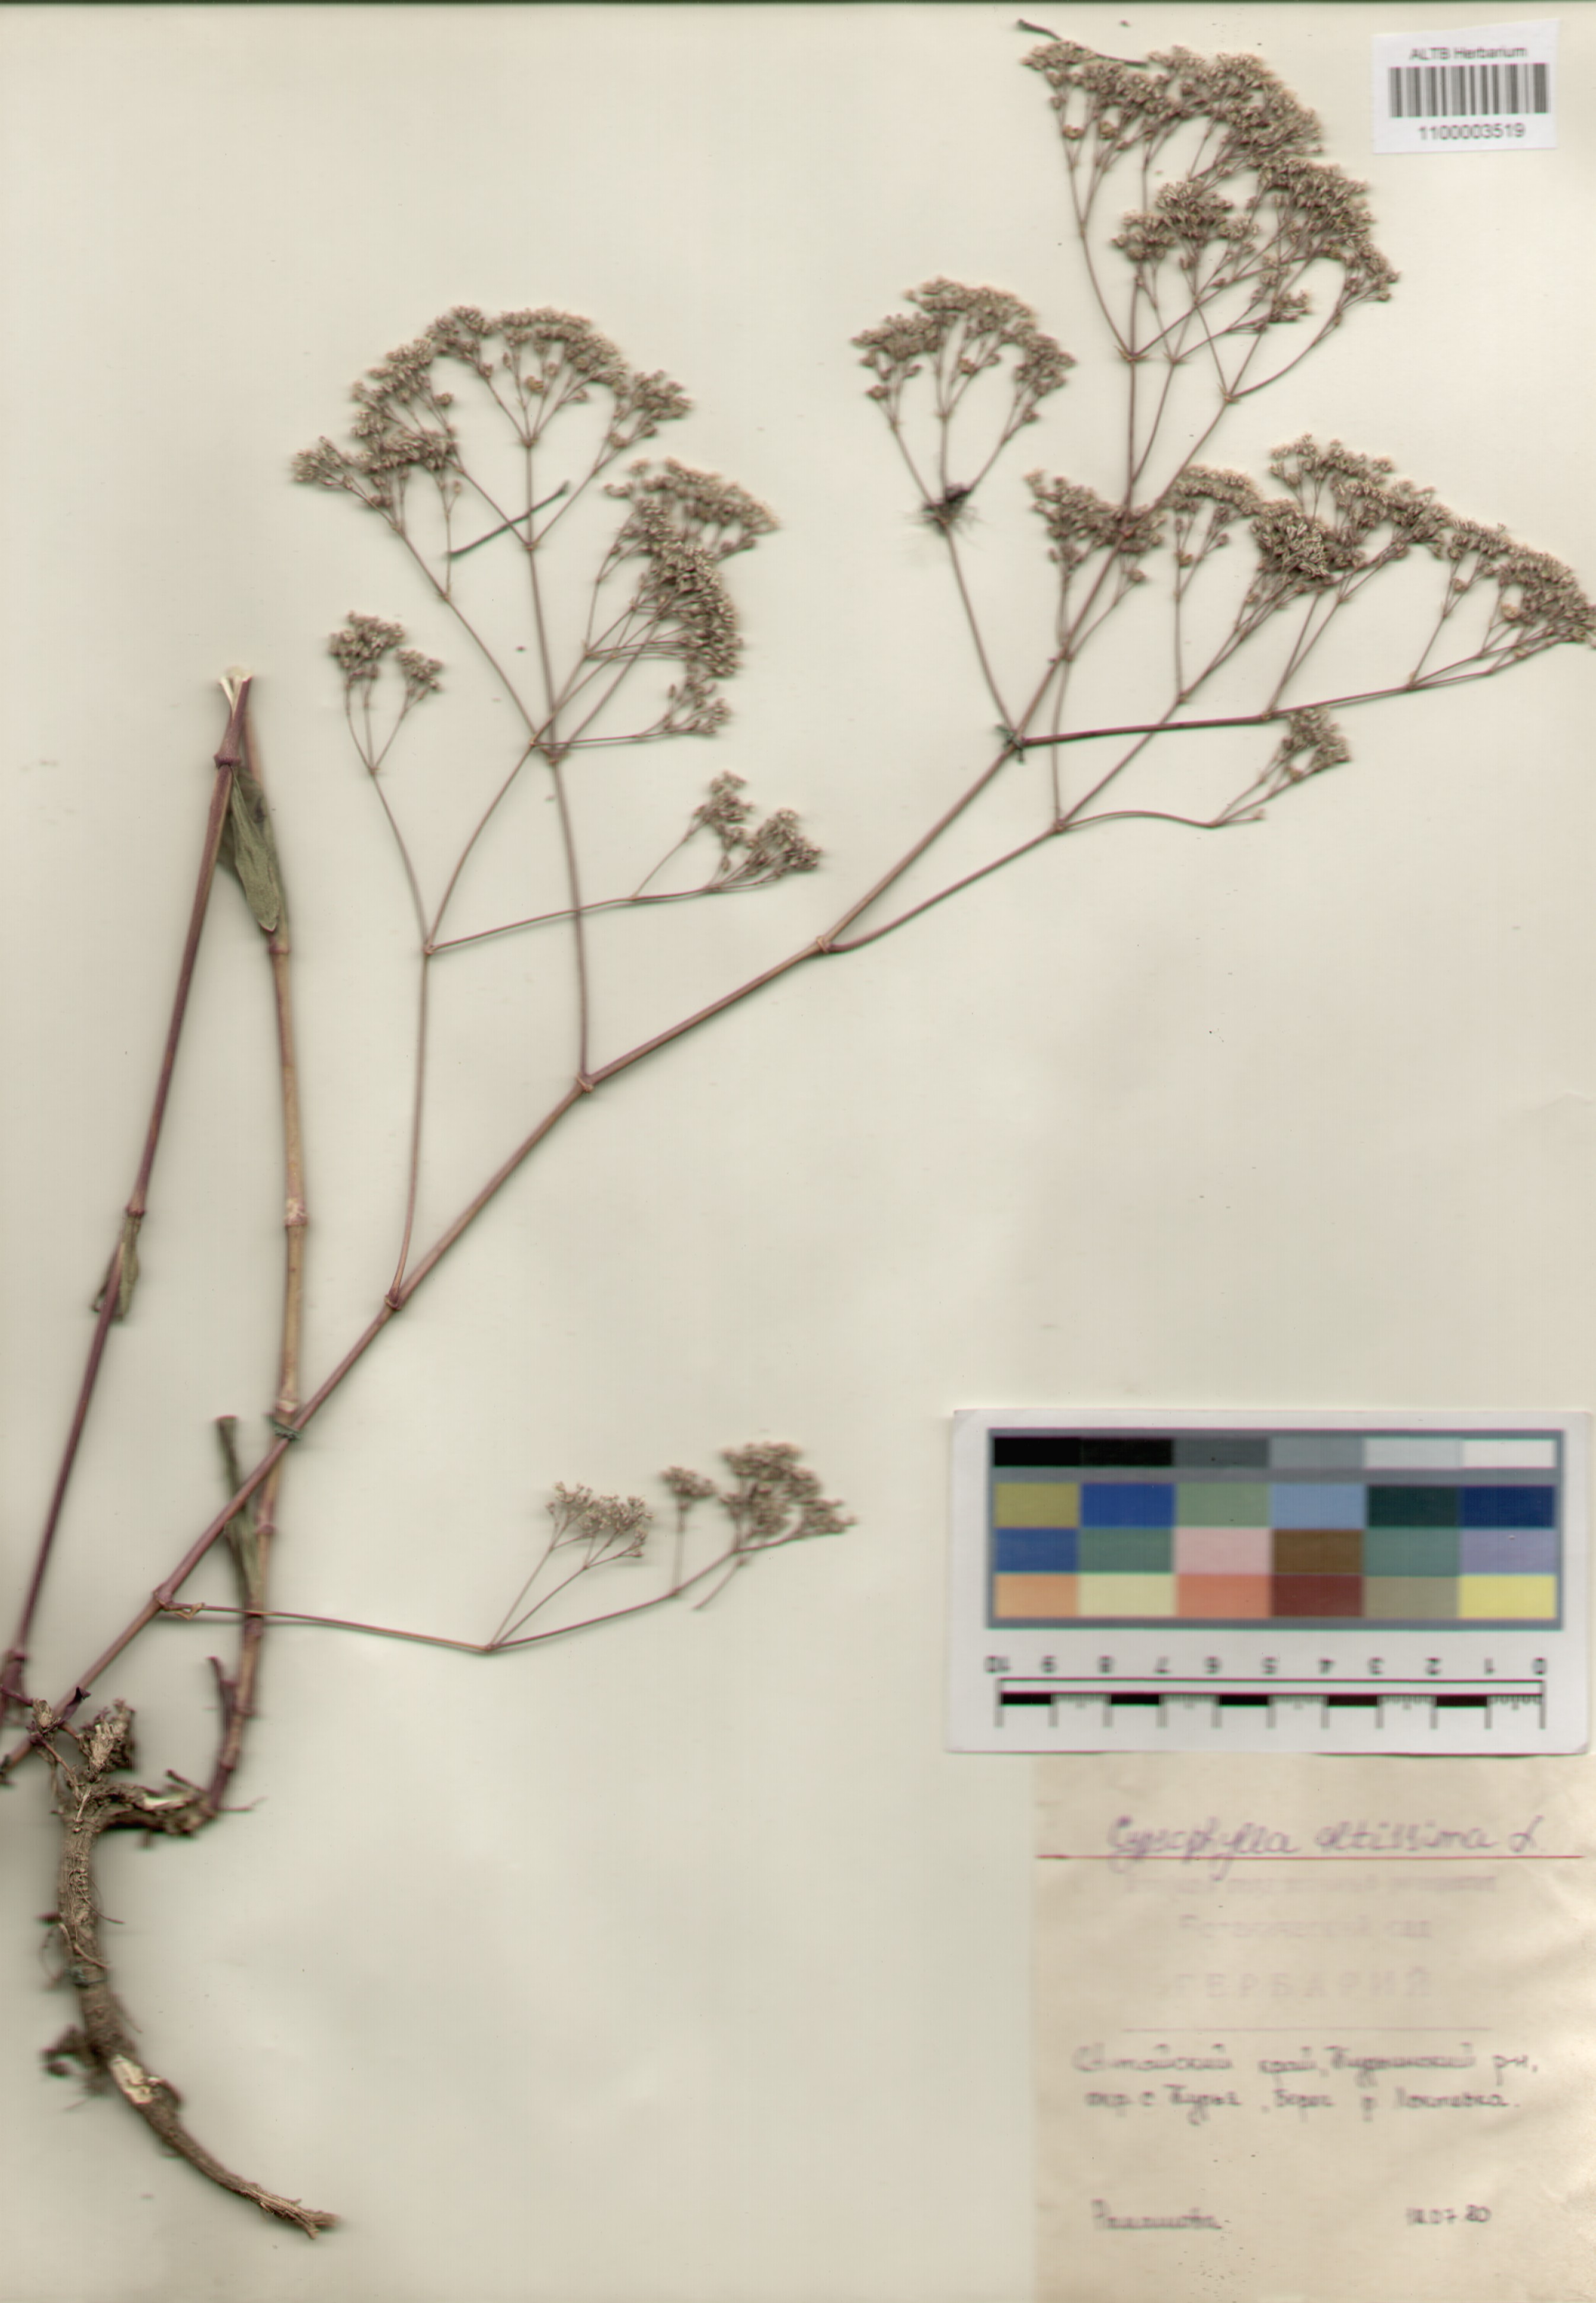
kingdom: Plantae
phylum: Tracheophyta
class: Magnoliopsida
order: Caryophyllales
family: Caryophyllaceae
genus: Gypsophila
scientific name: Gypsophila altissima
